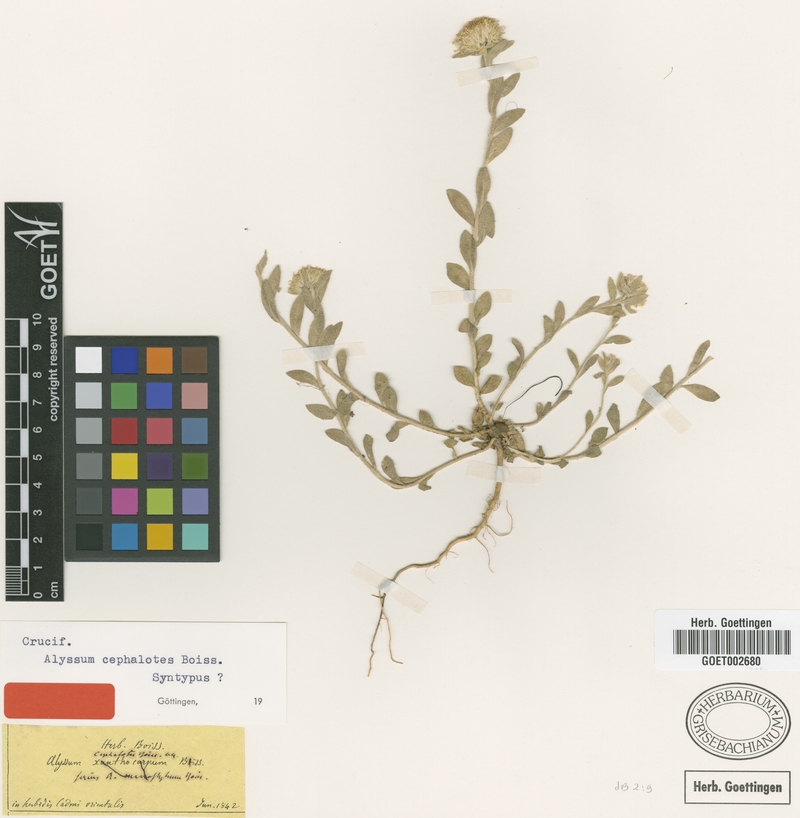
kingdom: Plantae
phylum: Tracheophyta
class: Magnoliopsida
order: Brassicales
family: Brassicaceae
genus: Alyssum
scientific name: Alyssum cephalotes
